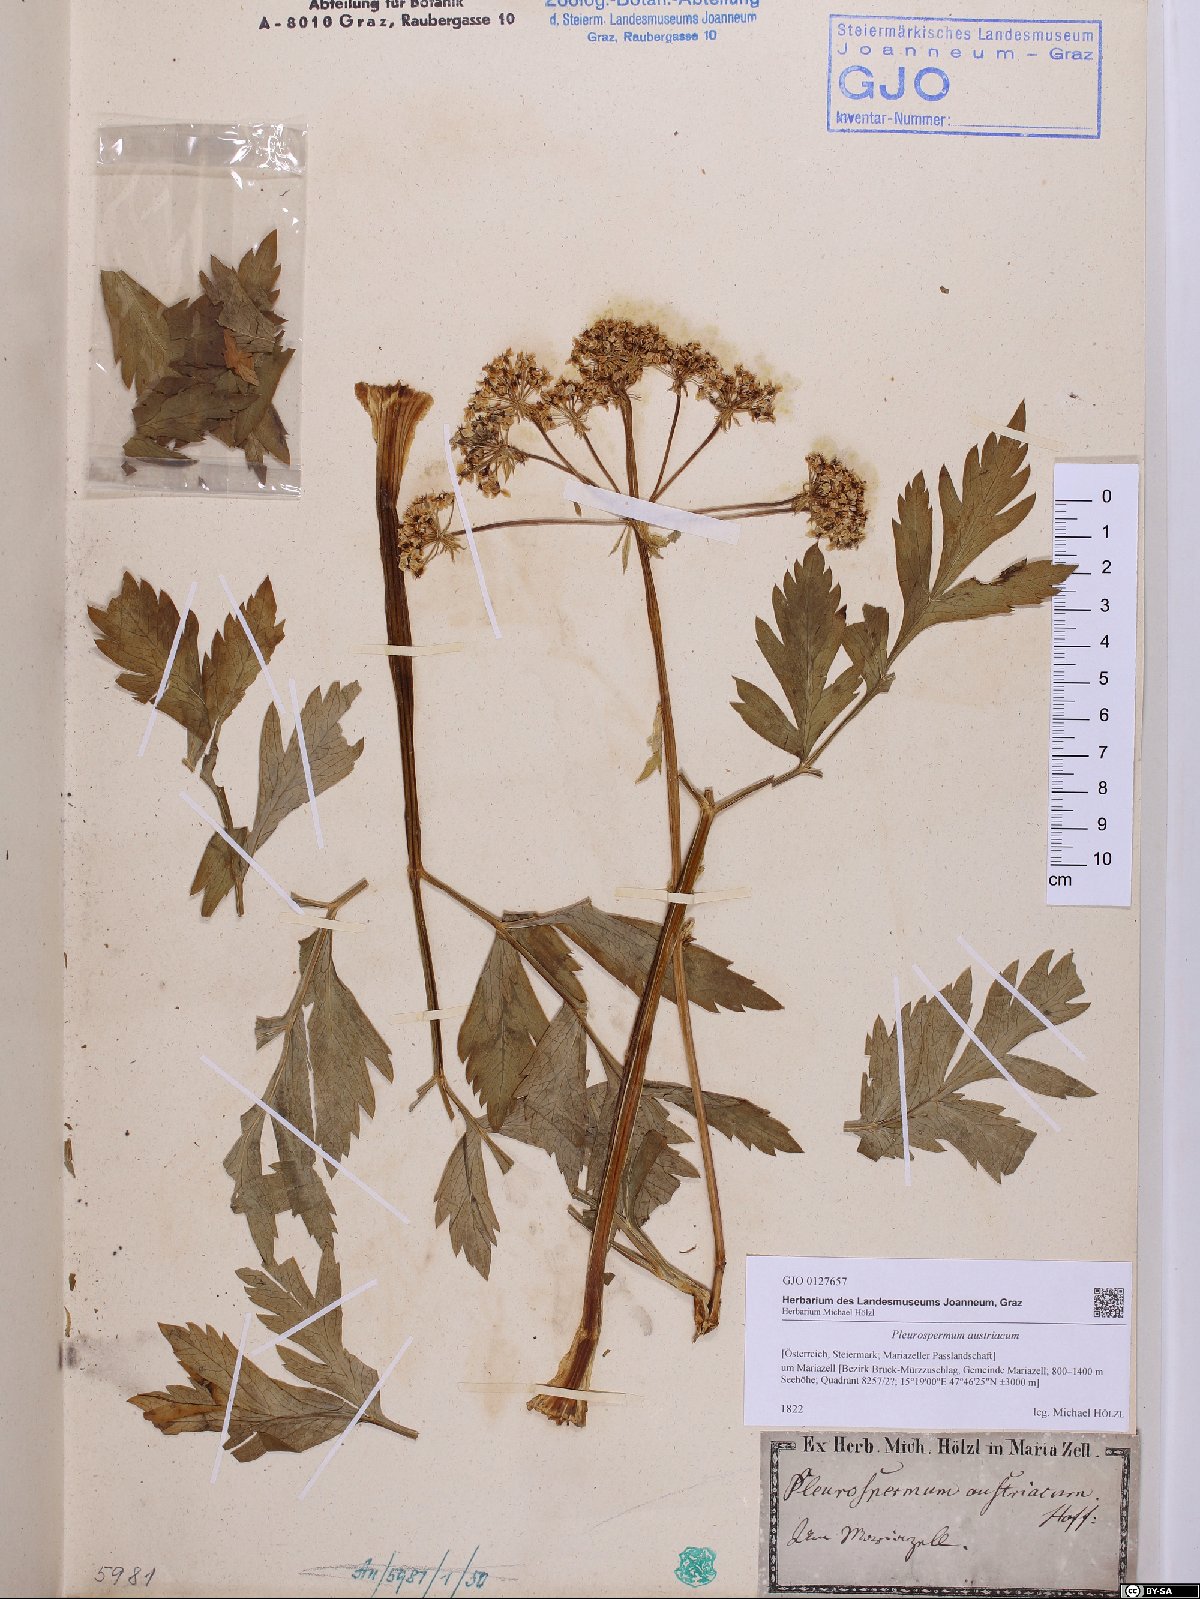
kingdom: Plantae
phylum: Tracheophyta
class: Magnoliopsida
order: Apiales
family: Apiaceae
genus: Pleurospermum
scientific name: Pleurospermum austriacum
